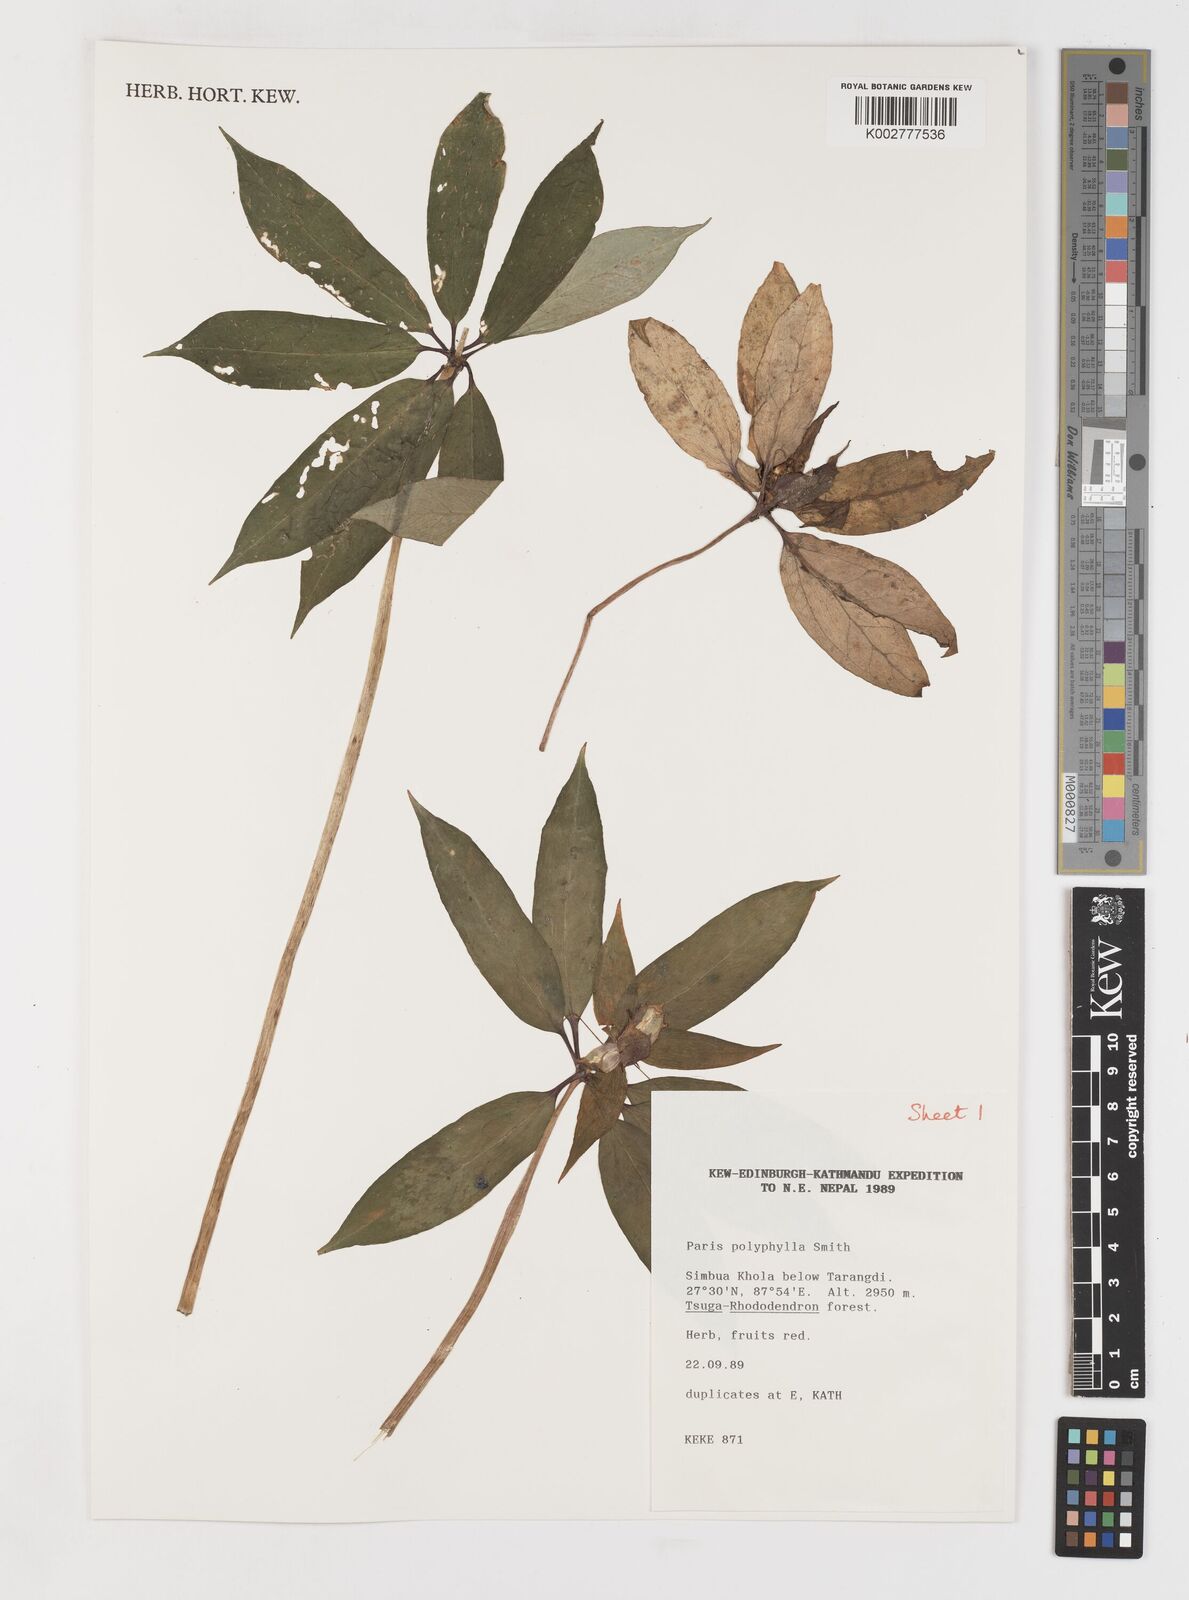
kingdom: Plantae
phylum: Tracheophyta
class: Liliopsida
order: Liliales
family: Melanthiaceae
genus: Paris
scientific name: Paris polyphylla
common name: Love apple
